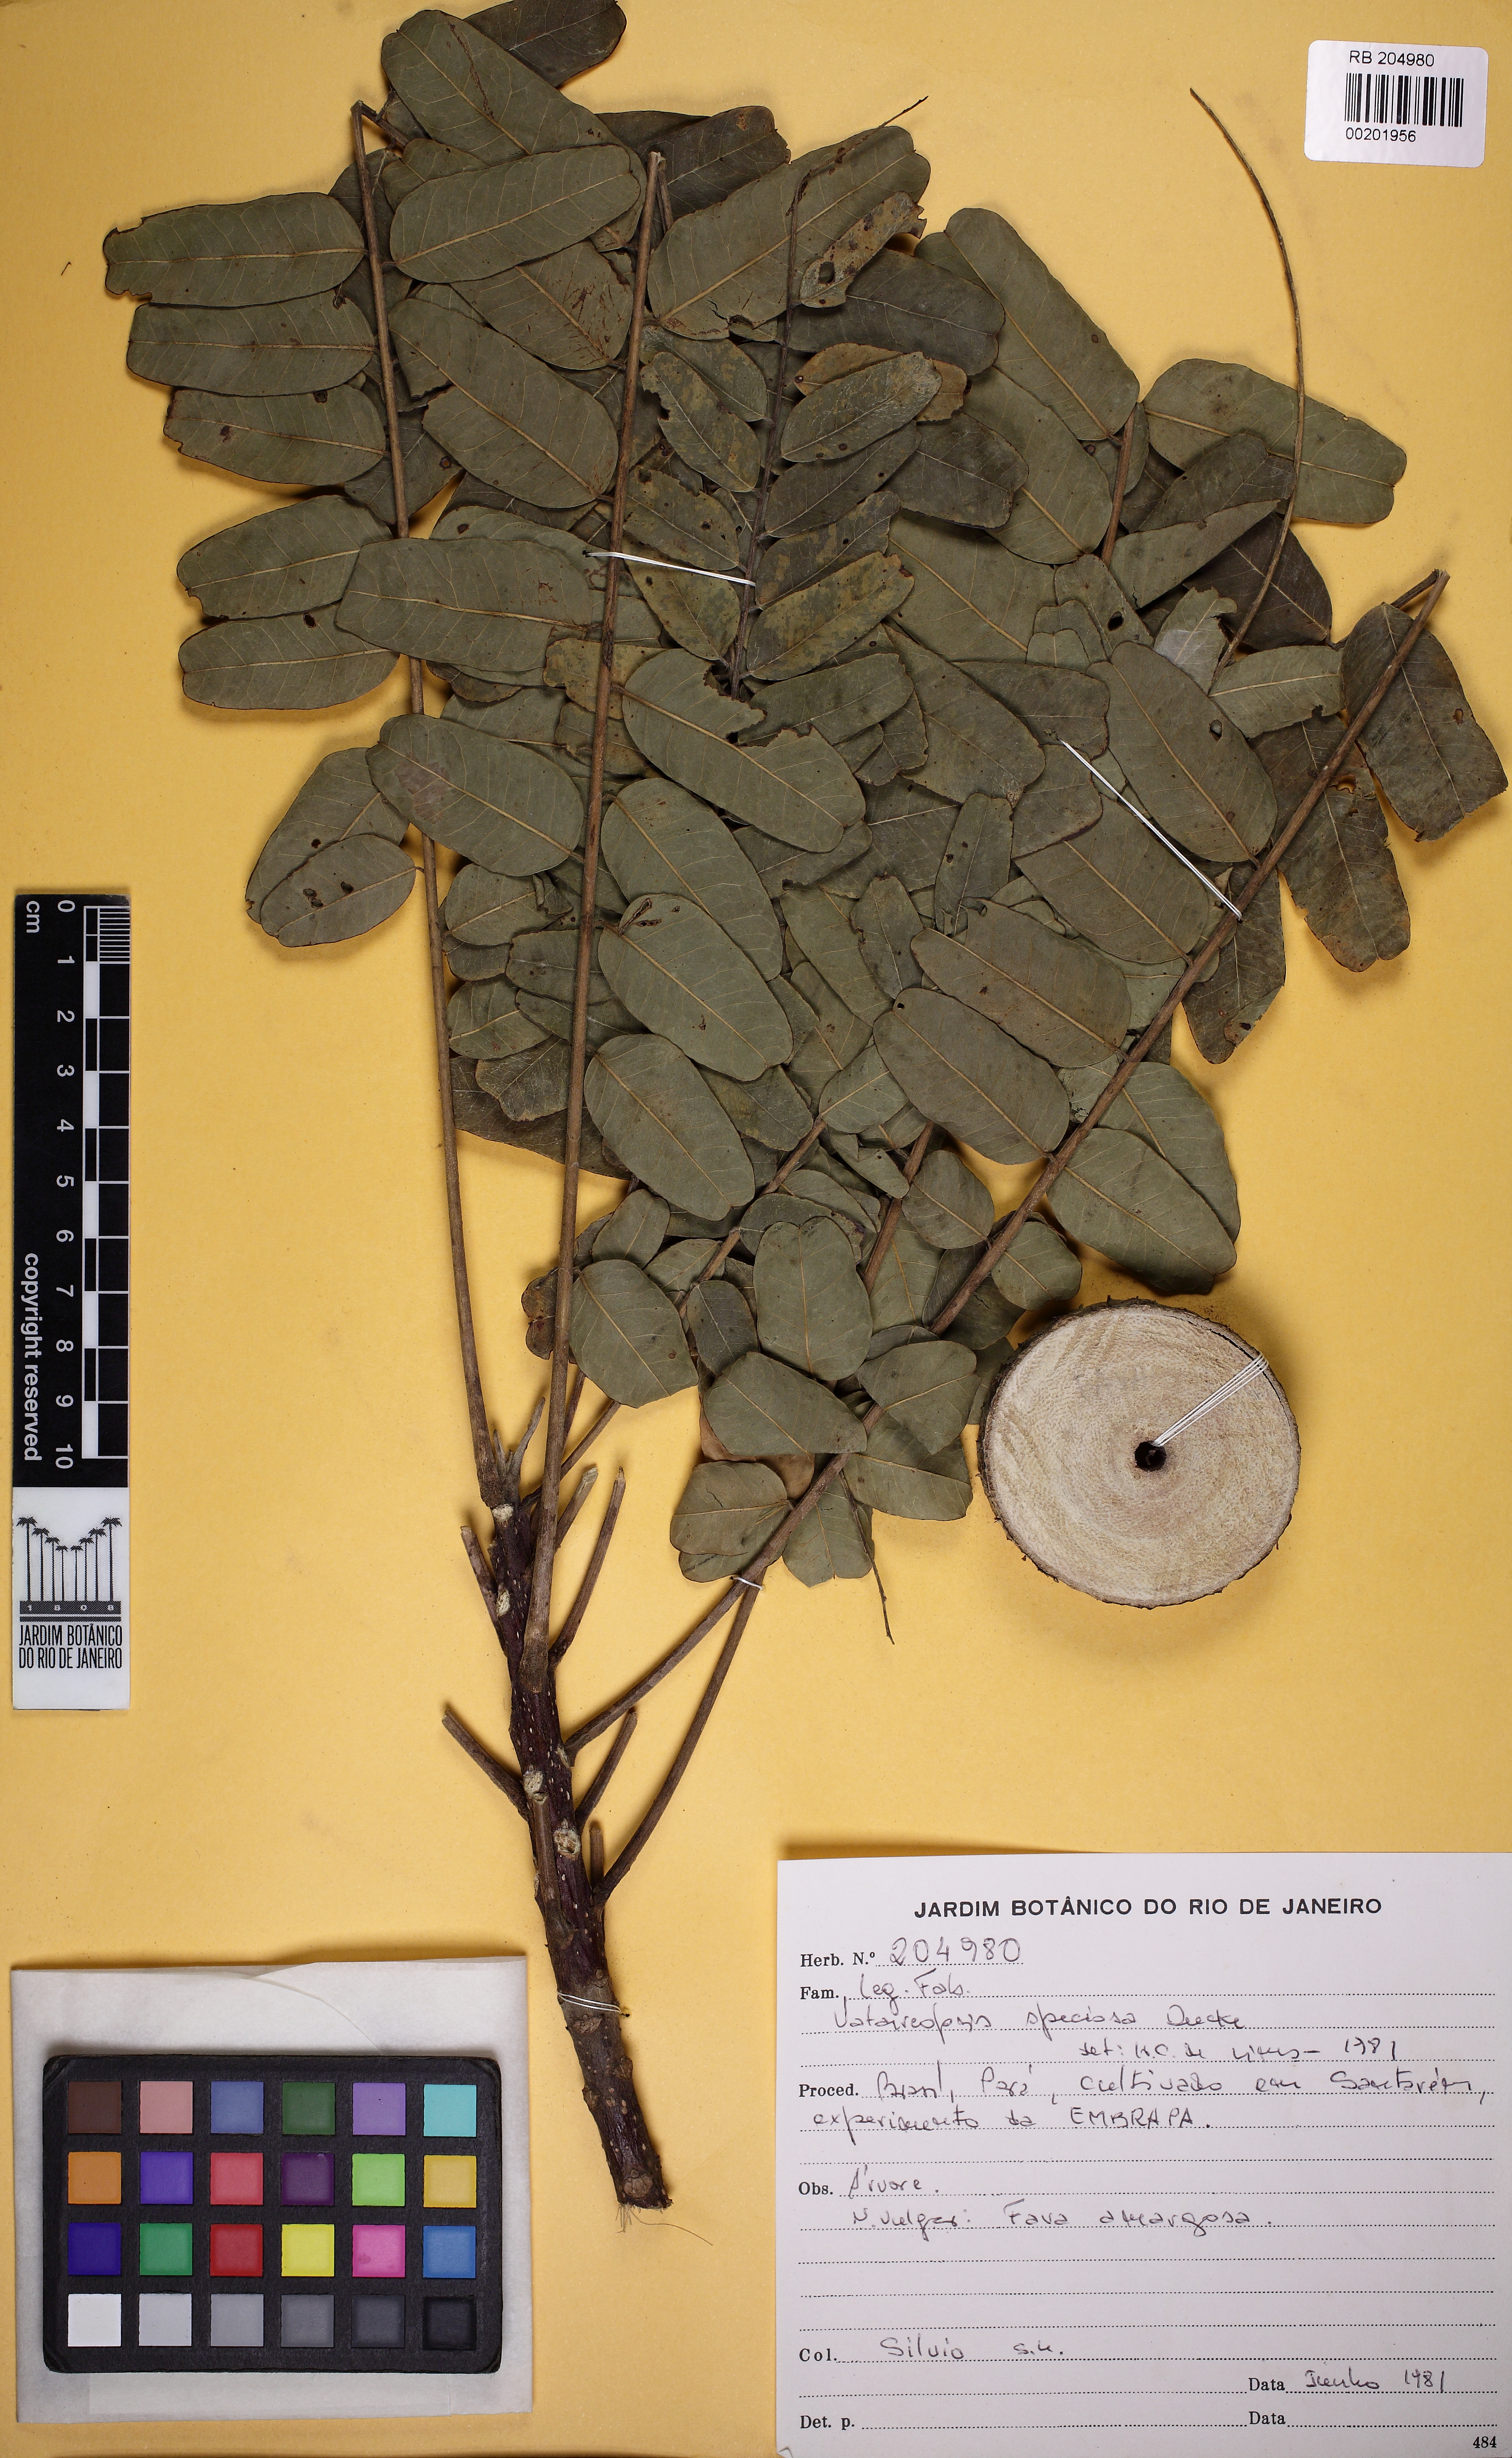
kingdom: Plantae
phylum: Tracheophyta
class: Magnoliopsida
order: Fabales
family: Fabaceae
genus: Vataireopsis
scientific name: Vataireopsis speciosa
